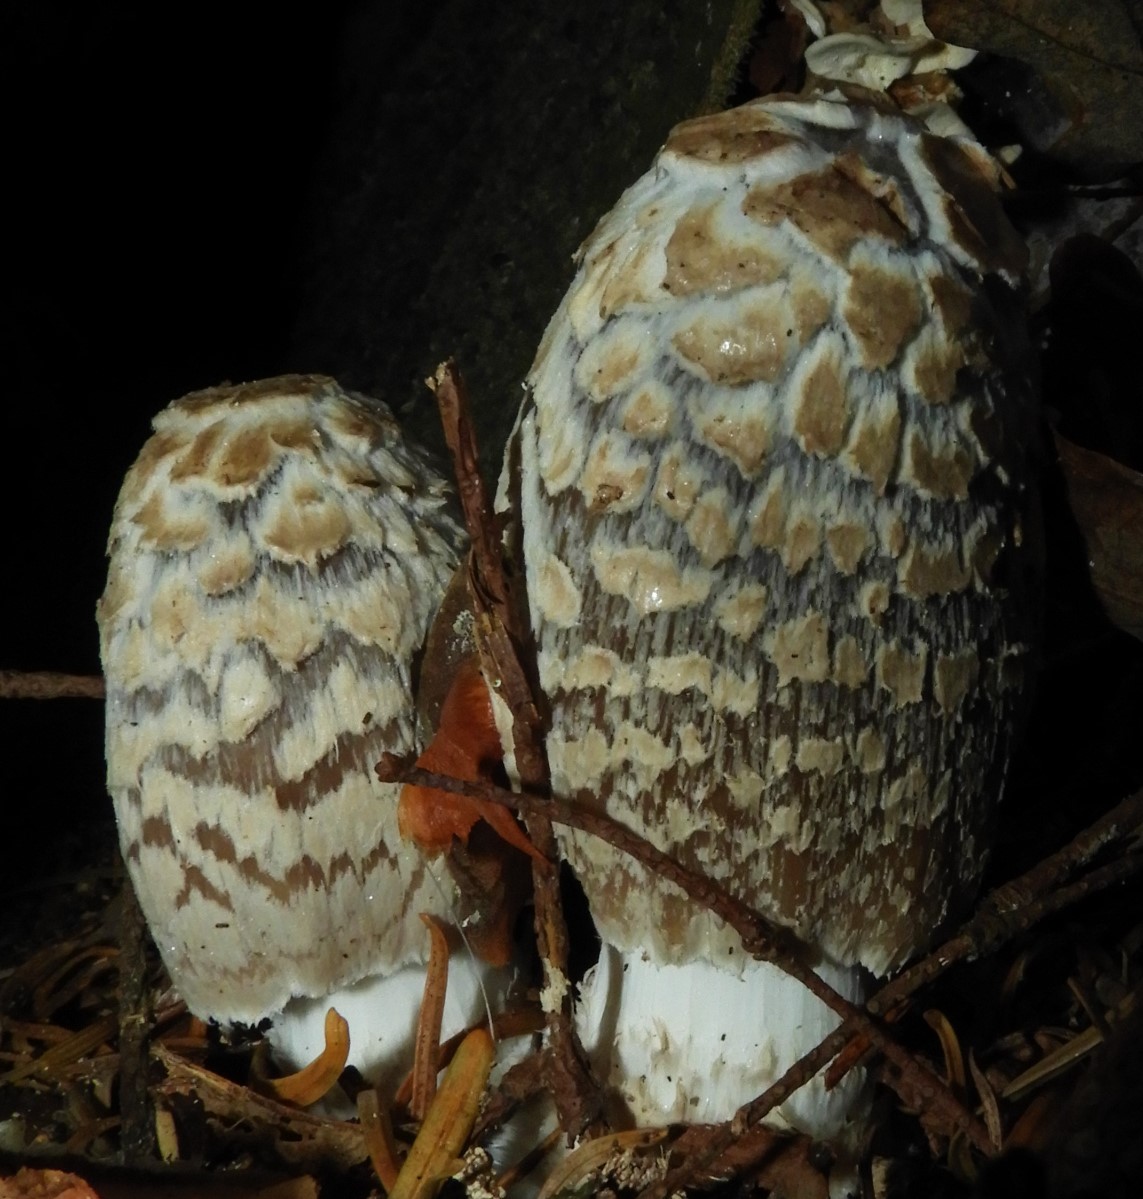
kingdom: Fungi
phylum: Basidiomycota
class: Agaricomycetes
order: Agaricales
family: Psathyrellaceae
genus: Coprinopsis
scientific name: Coprinopsis picacea
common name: skade-blækhat
